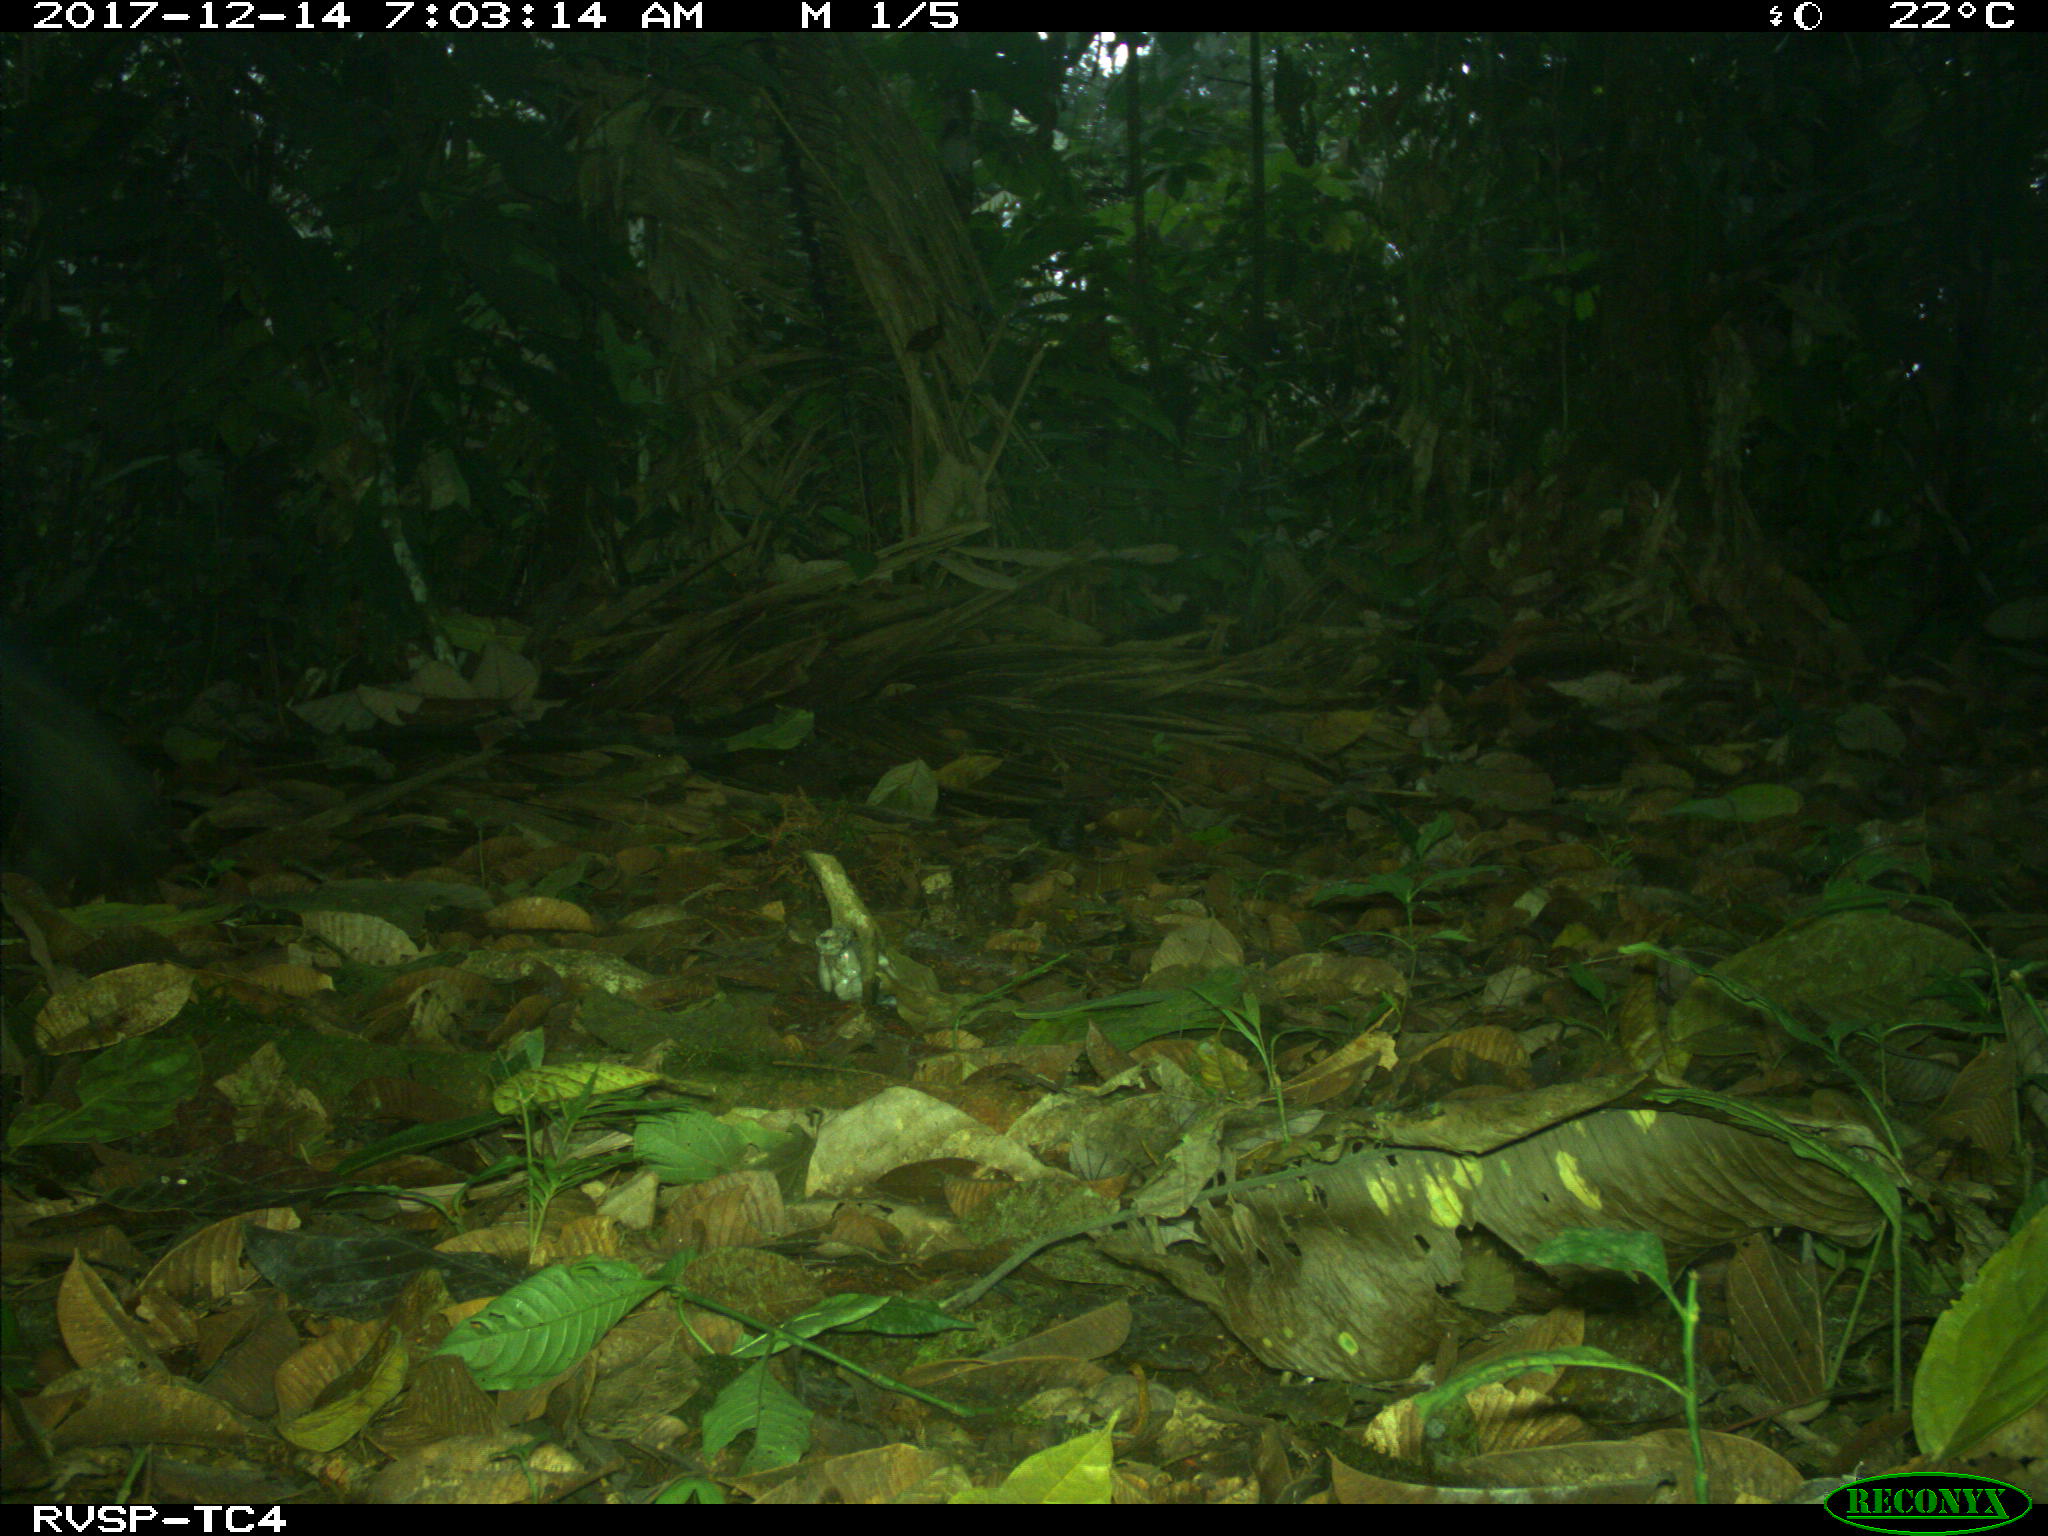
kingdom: Animalia
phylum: Chordata
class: Mammalia
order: Rodentia
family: Dasyproctidae
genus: Dasyprocta
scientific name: Dasyprocta punctata
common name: Central american agouti
